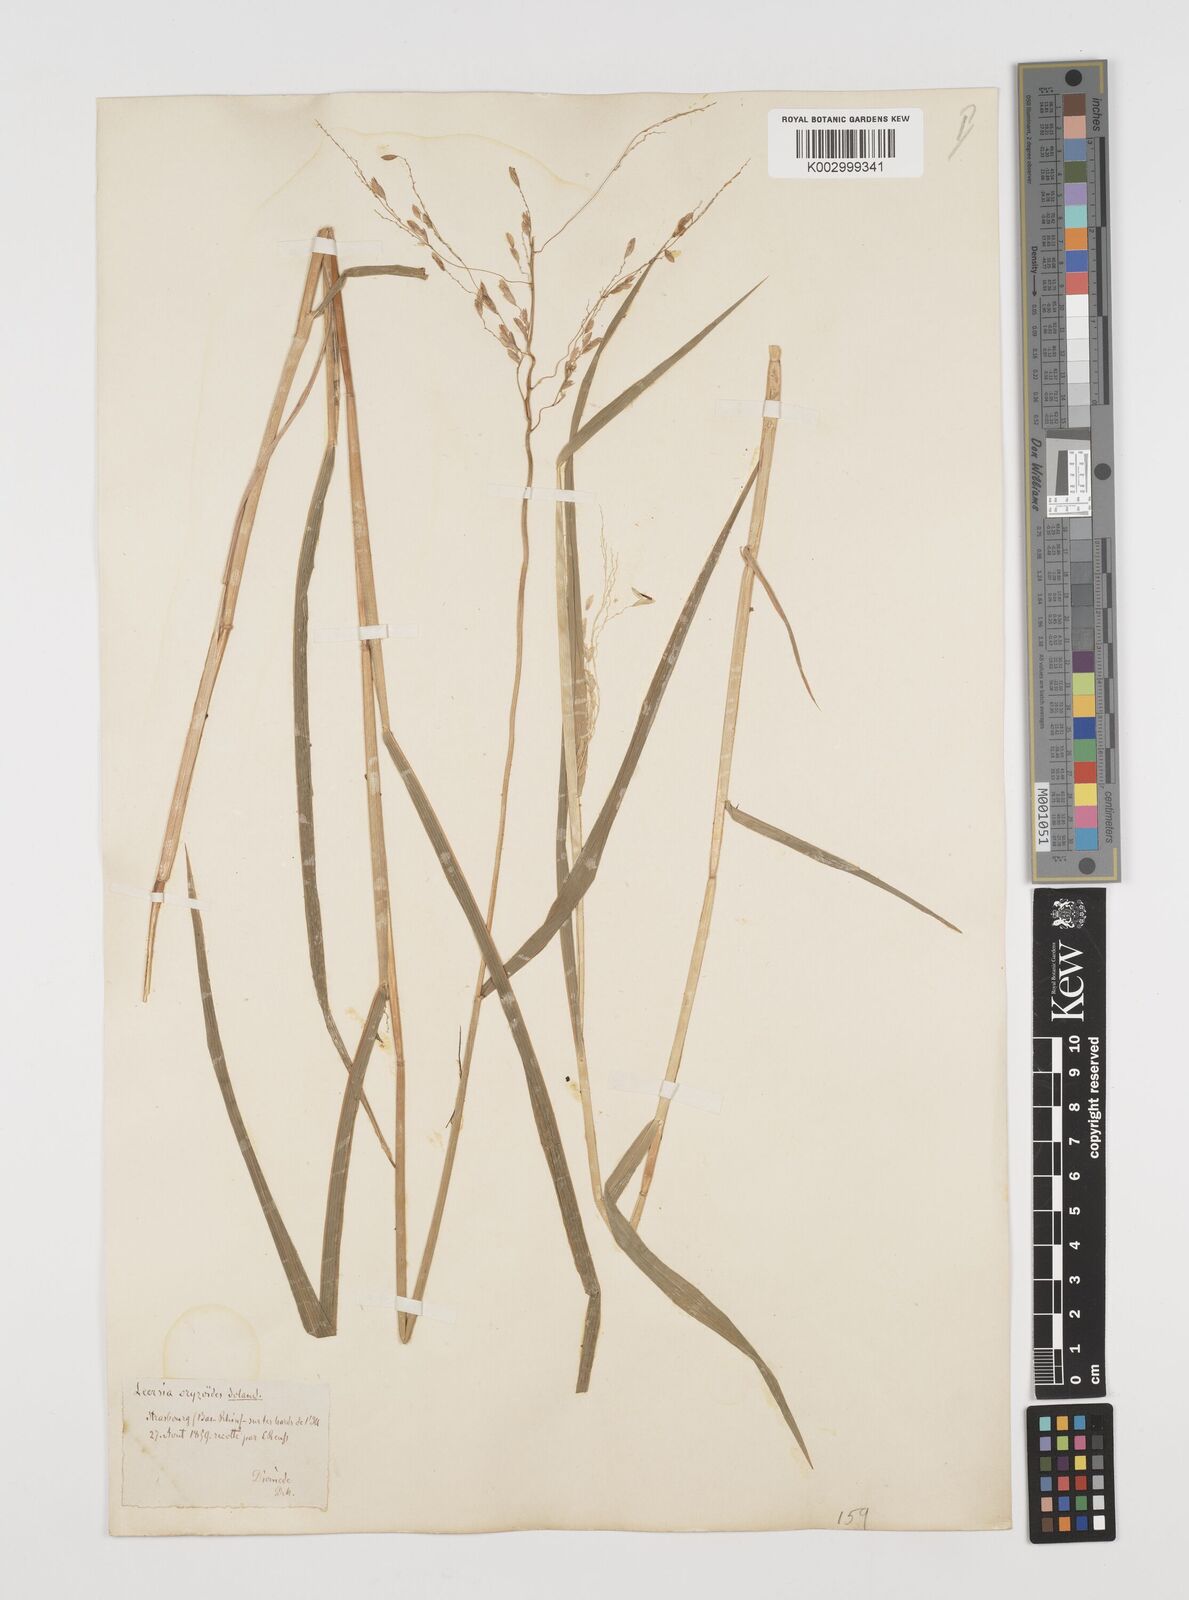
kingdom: Plantae
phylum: Tracheophyta
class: Liliopsida
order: Poales
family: Poaceae
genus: Leersia
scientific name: Leersia oryzoides
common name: Cut-grass
